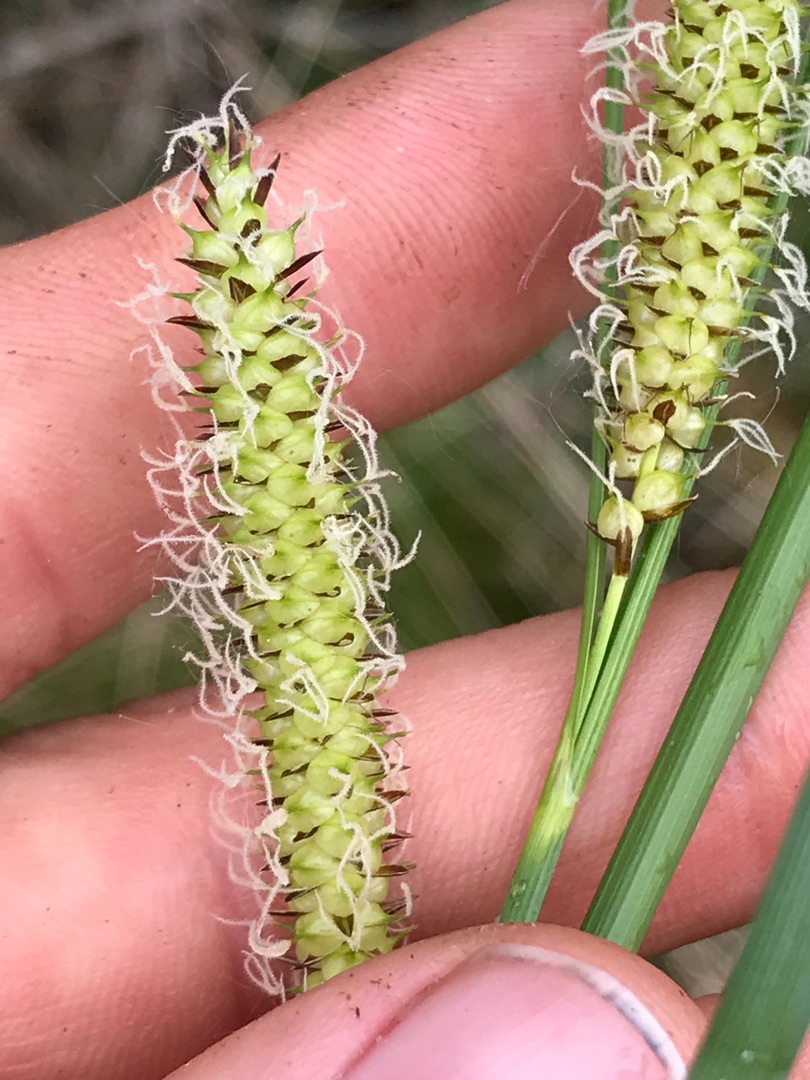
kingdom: Plantae
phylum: Tracheophyta
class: Liliopsida
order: Poales
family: Cyperaceae
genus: Carex
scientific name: Carex rostrata
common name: Næb-star
